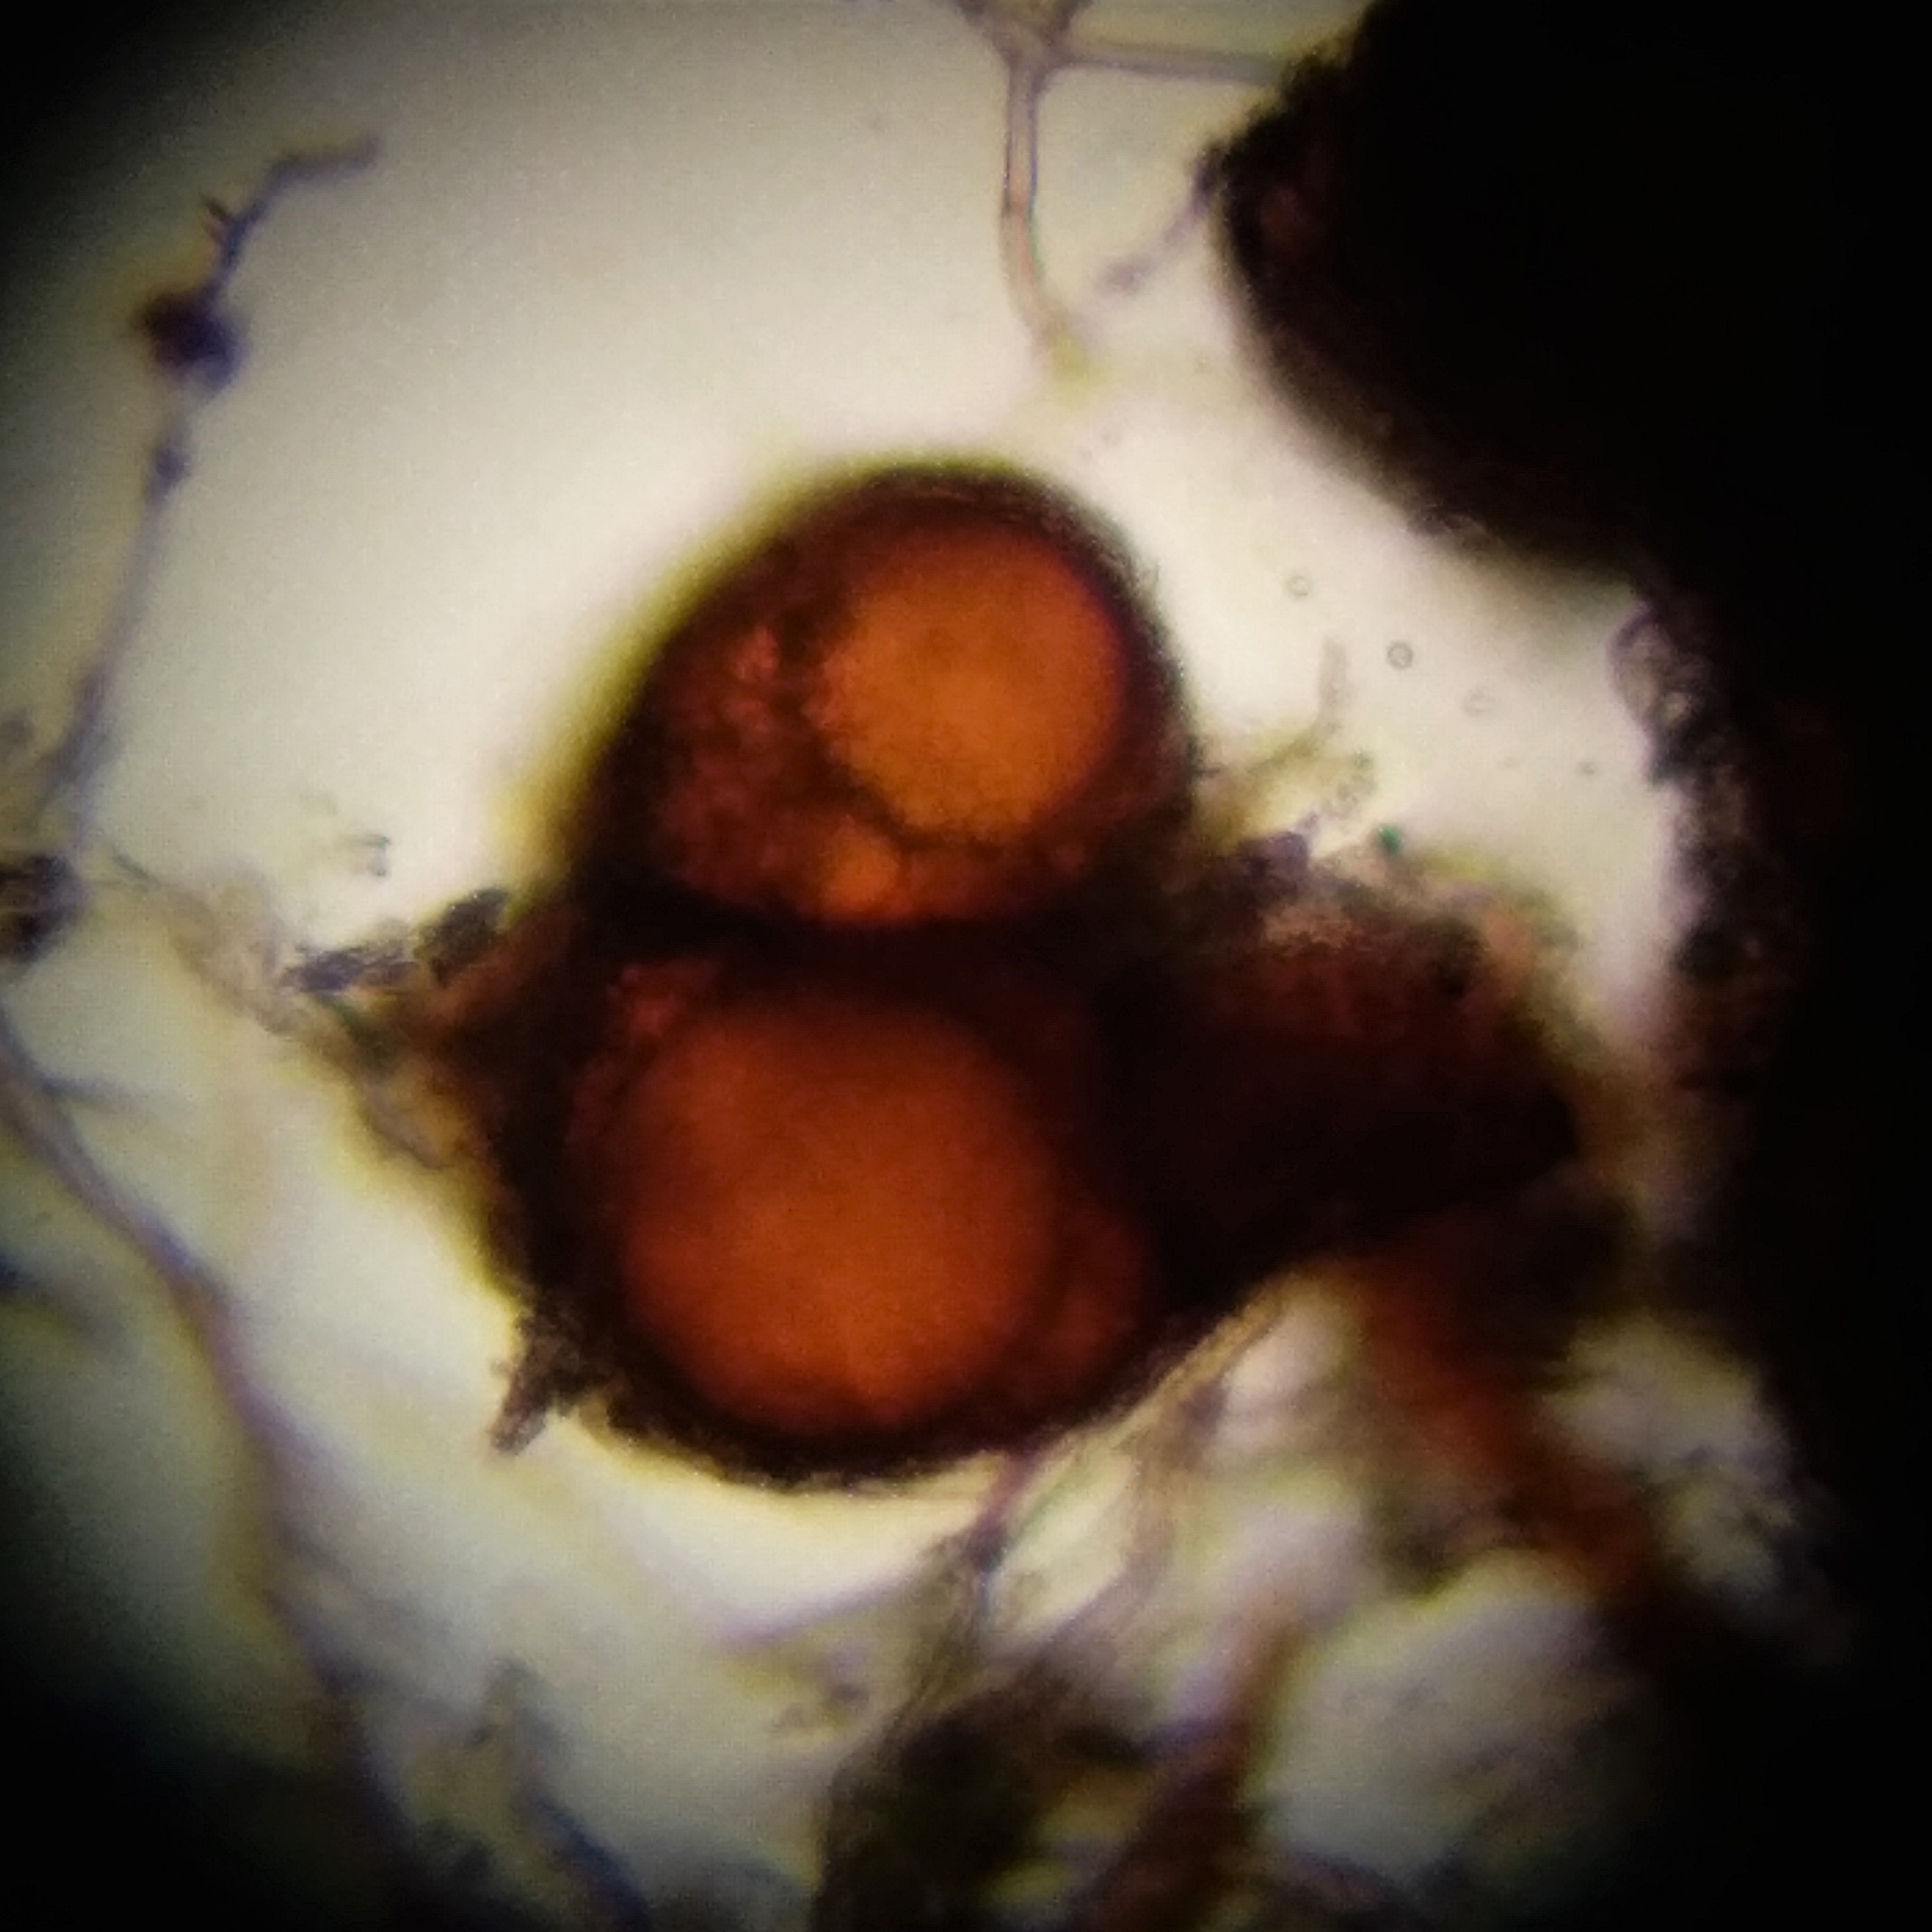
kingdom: Plantae
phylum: Bryophyta
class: Bryopsida
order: Dicranales
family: Ditrichaceae
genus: Trichodon
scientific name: Trichodon cylindricus
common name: Udspærret hårtand
